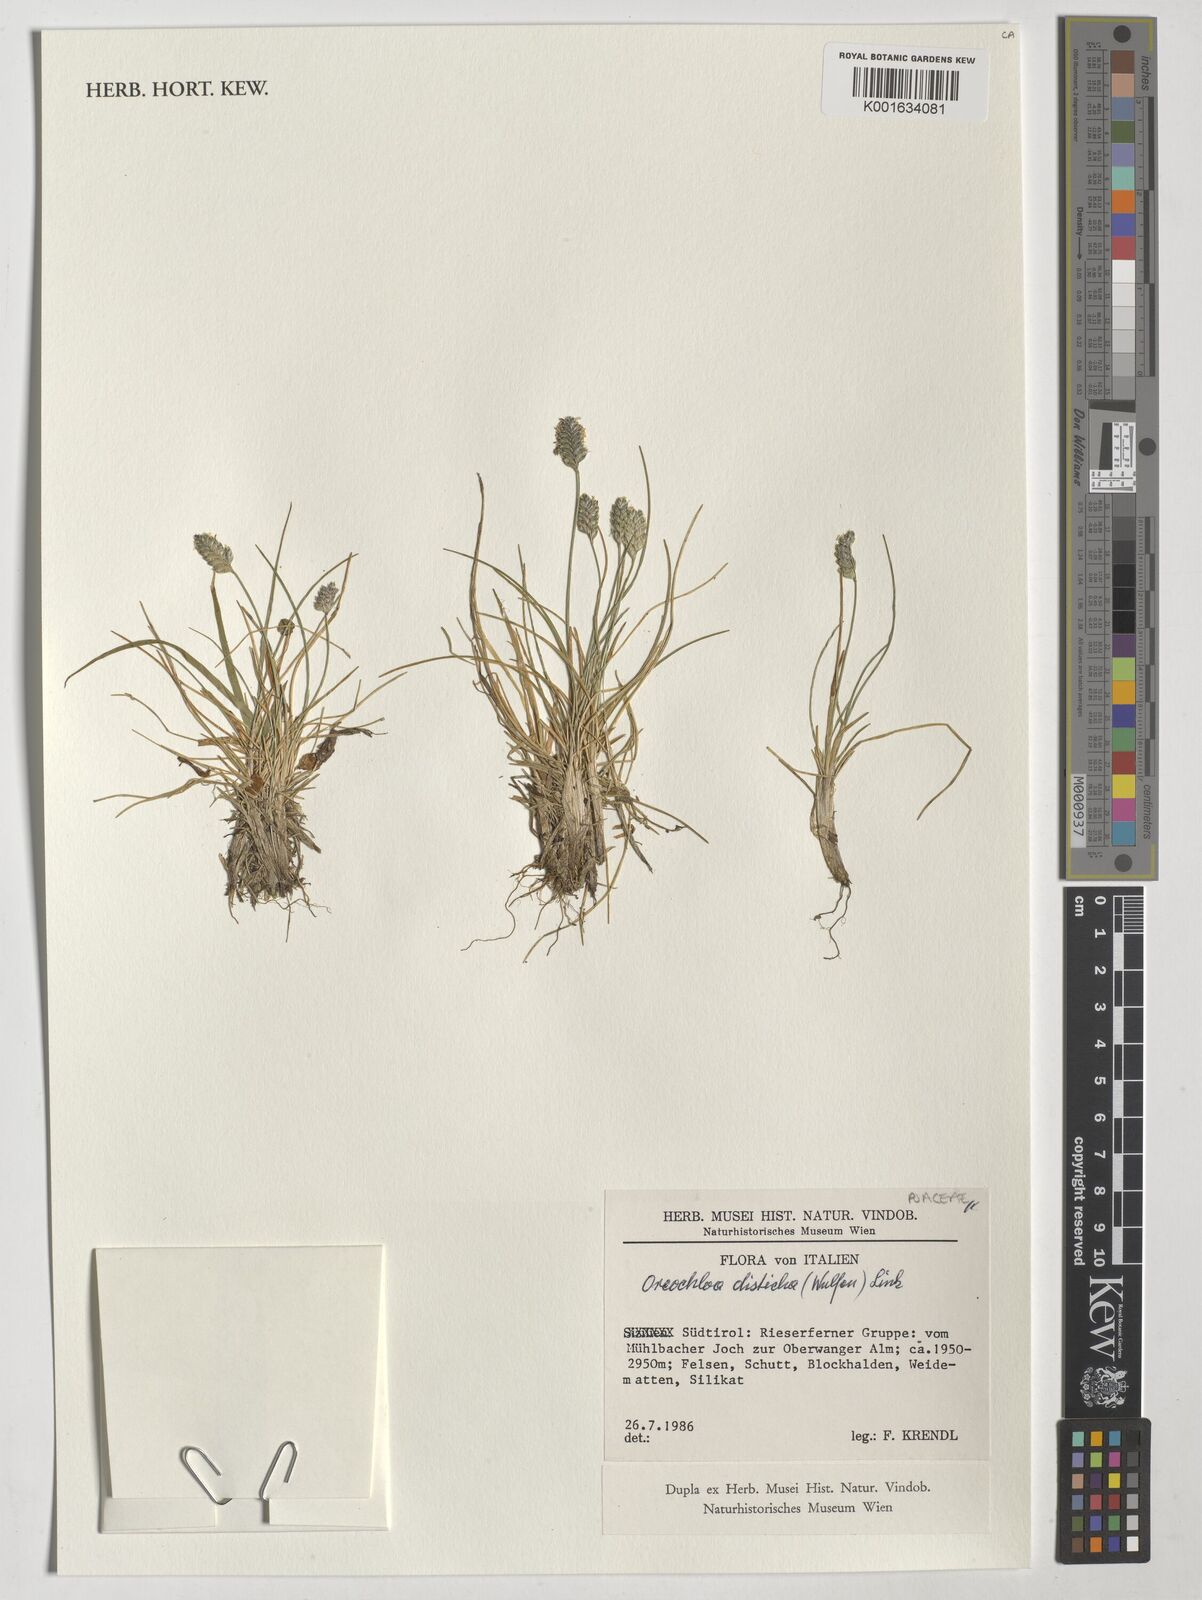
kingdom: Plantae
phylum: Tracheophyta
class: Liliopsida
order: Poales
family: Poaceae
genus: Oreochloa
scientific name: Oreochloa disticha
